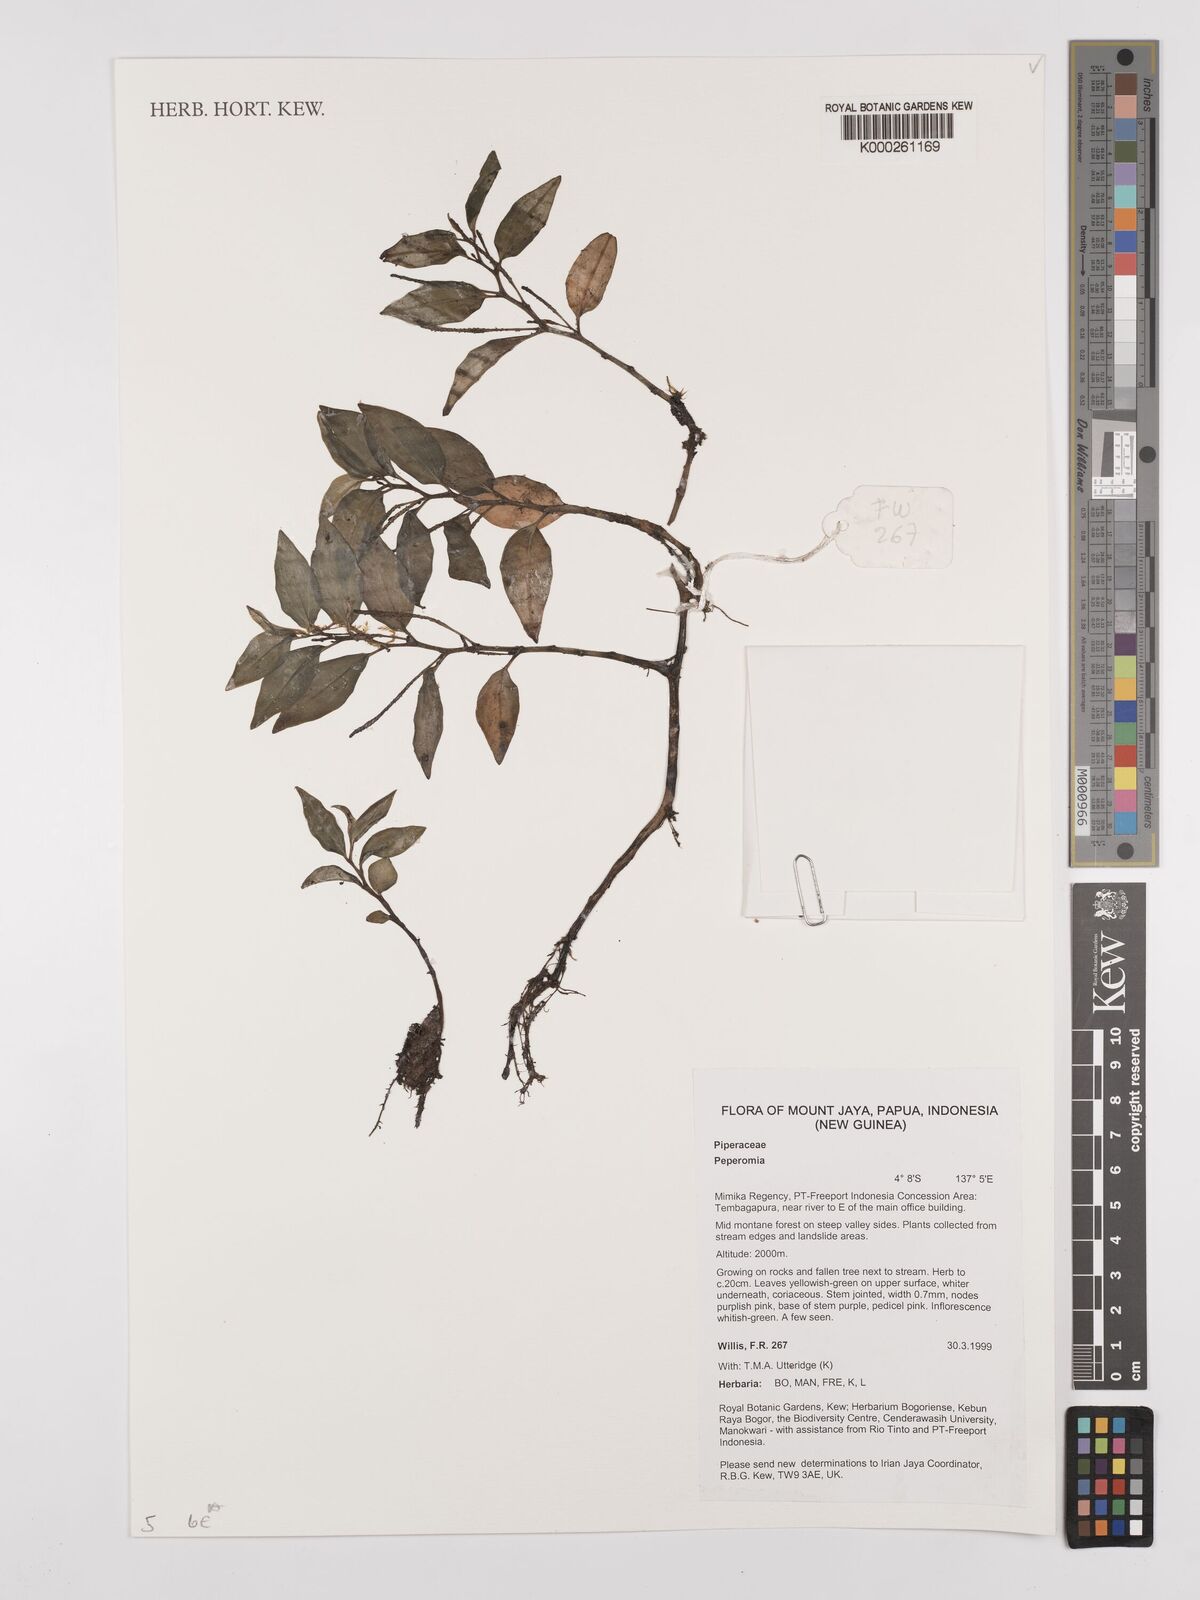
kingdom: Plantae
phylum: Tracheophyta
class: Magnoliopsida
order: Piperales
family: Piperaceae
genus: Peperomia
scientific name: Peperomia
